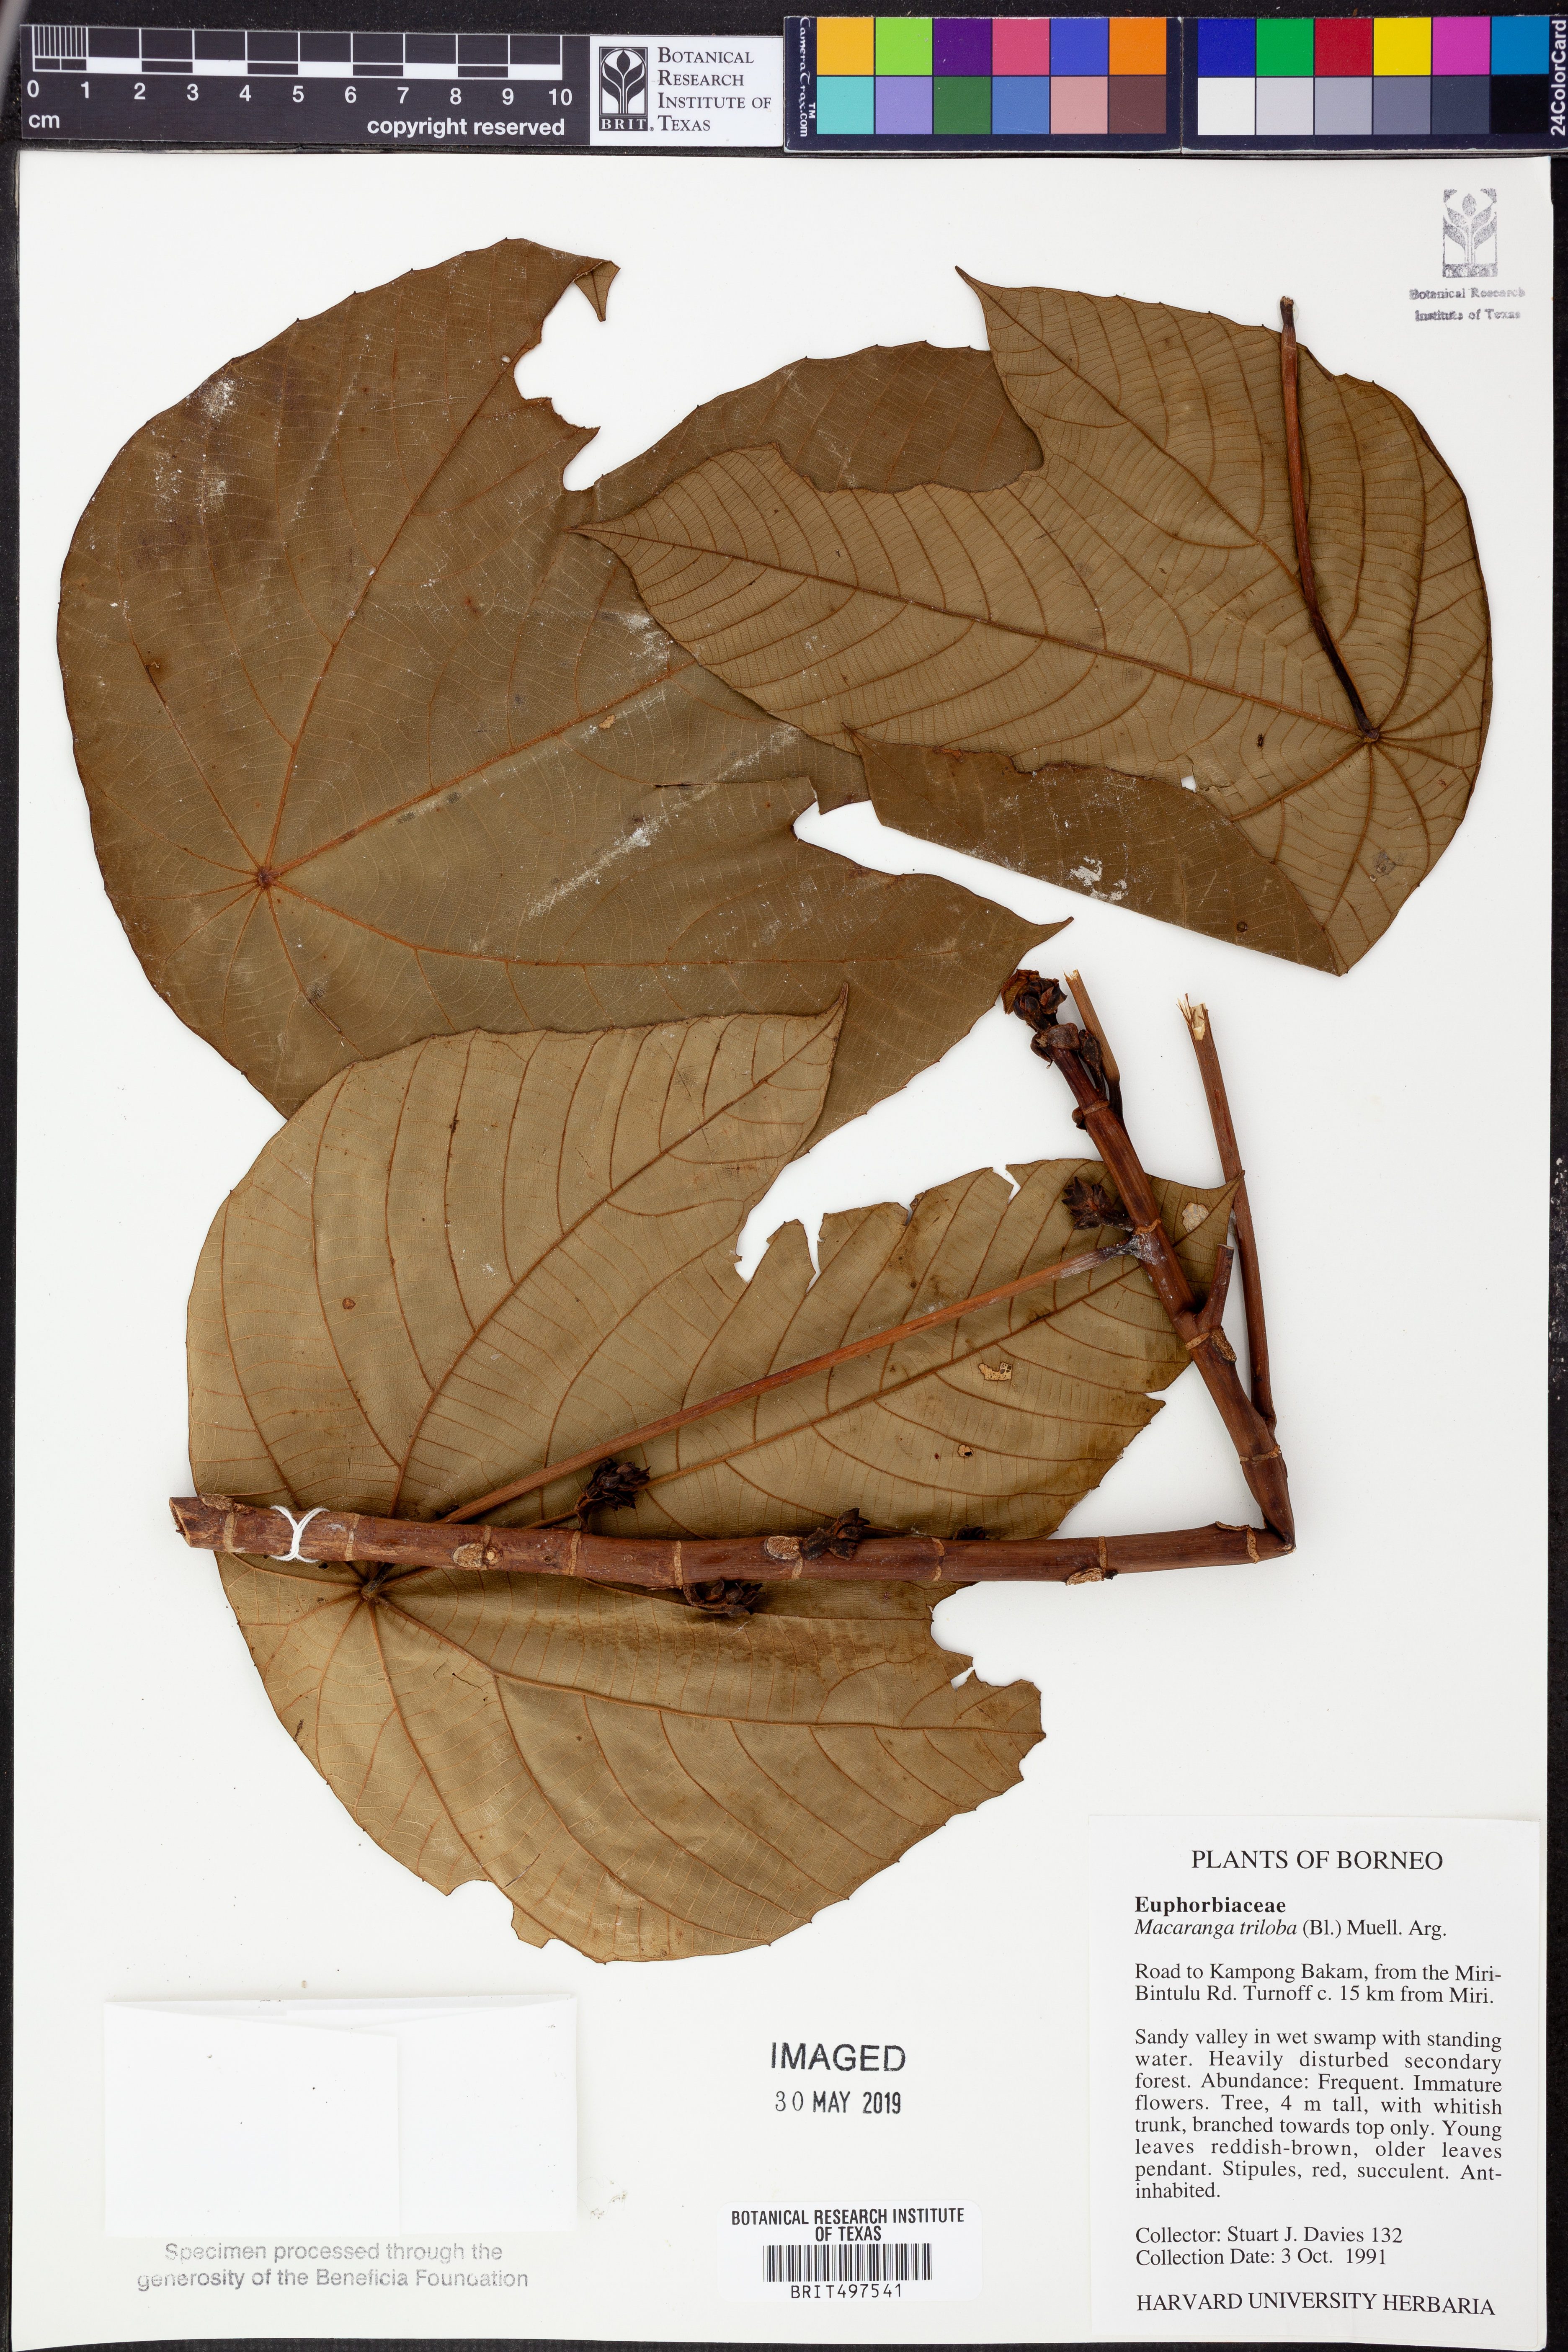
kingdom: Plantae
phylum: Tracheophyta
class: Magnoliopsida
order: Malpighiales
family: Euphorbiaceae
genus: Macaranga
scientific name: Macaranga triloba
